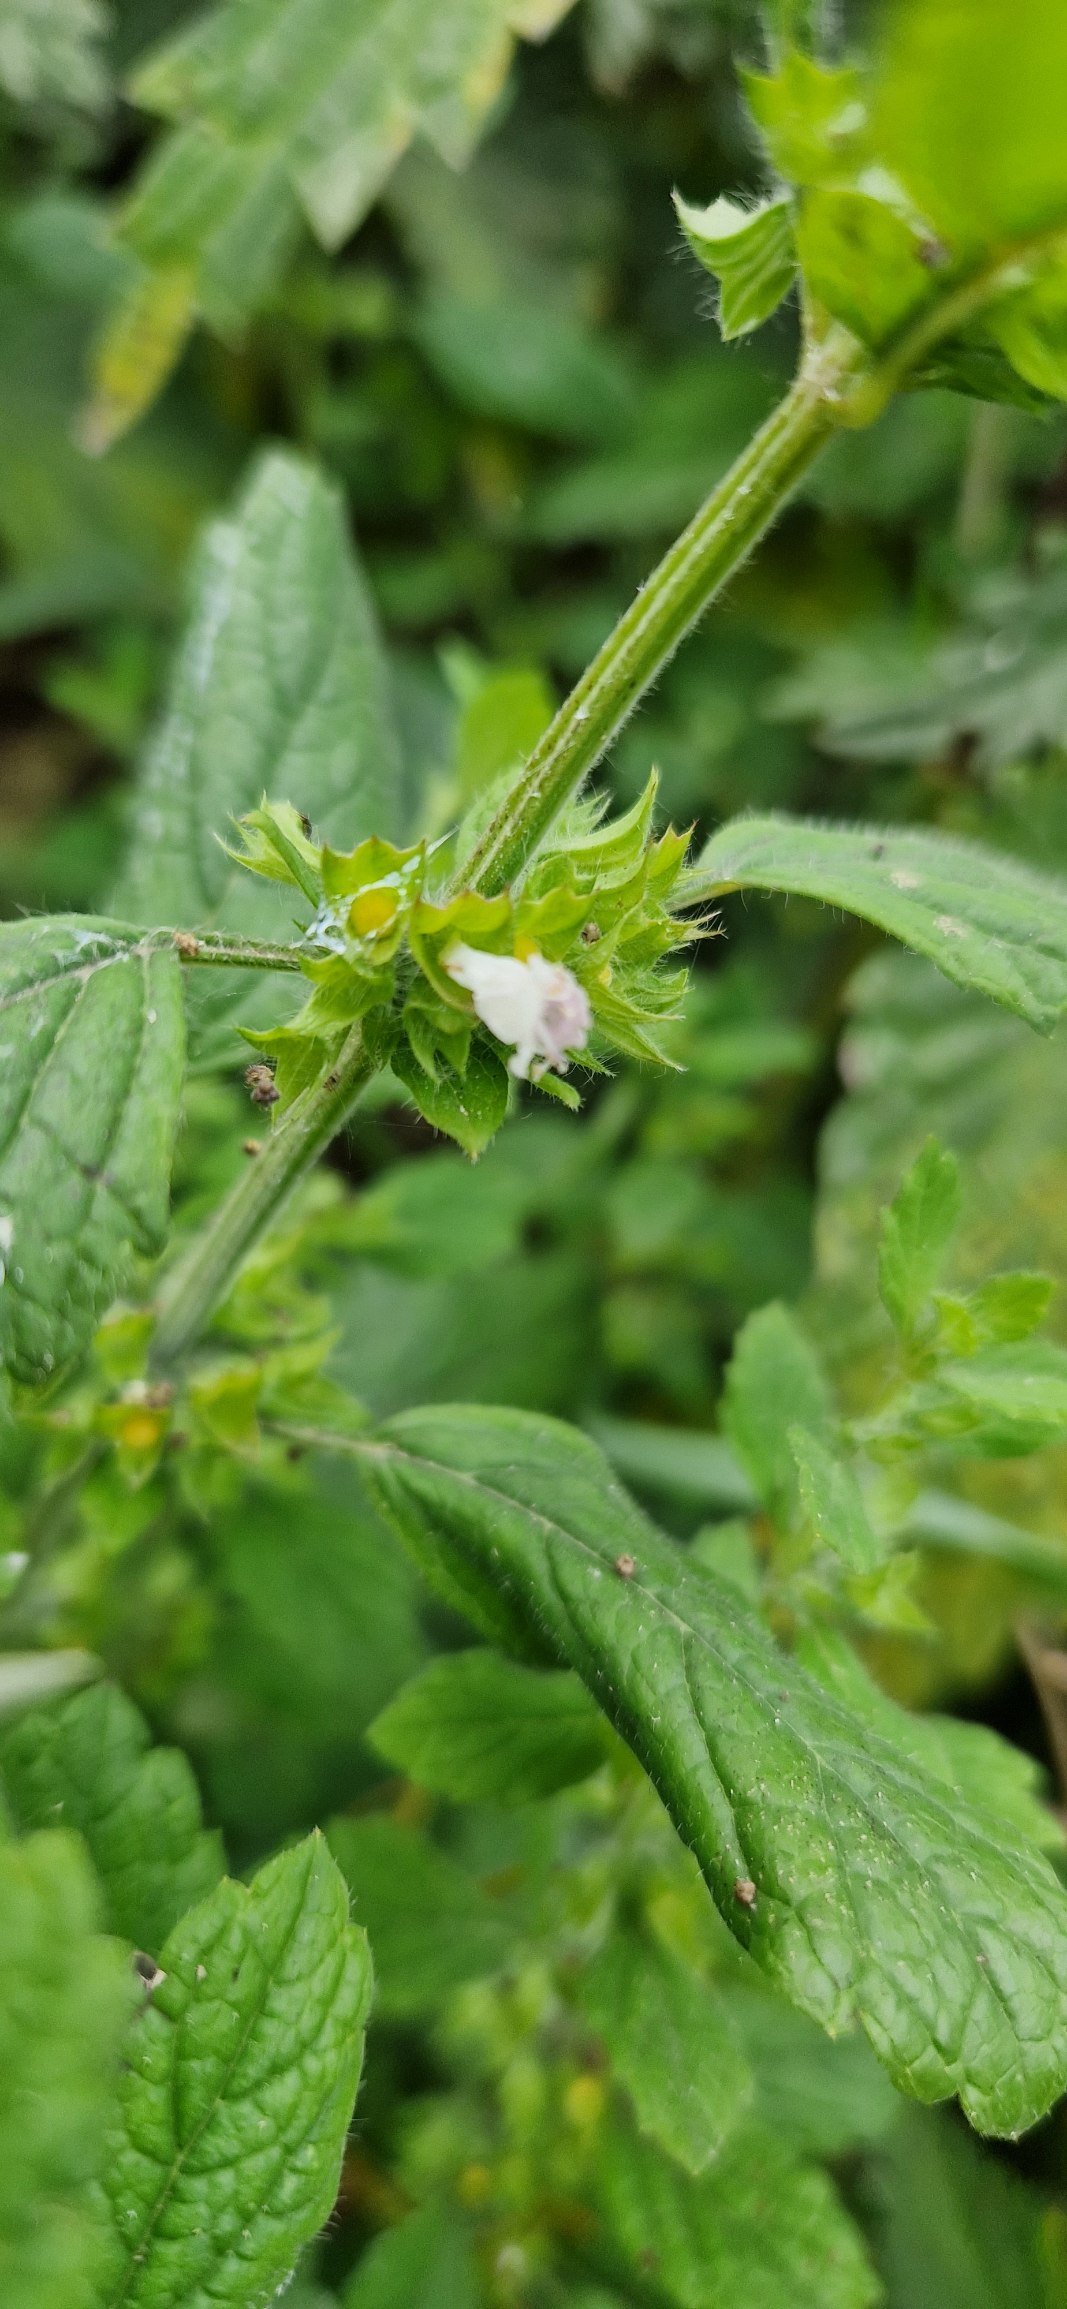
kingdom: Plantae
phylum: Tracheophyta
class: Magnoliopsida
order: Lamiales
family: Lamiaceae
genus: Melissa
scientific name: Melissa officinalis
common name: Citronmelisse
